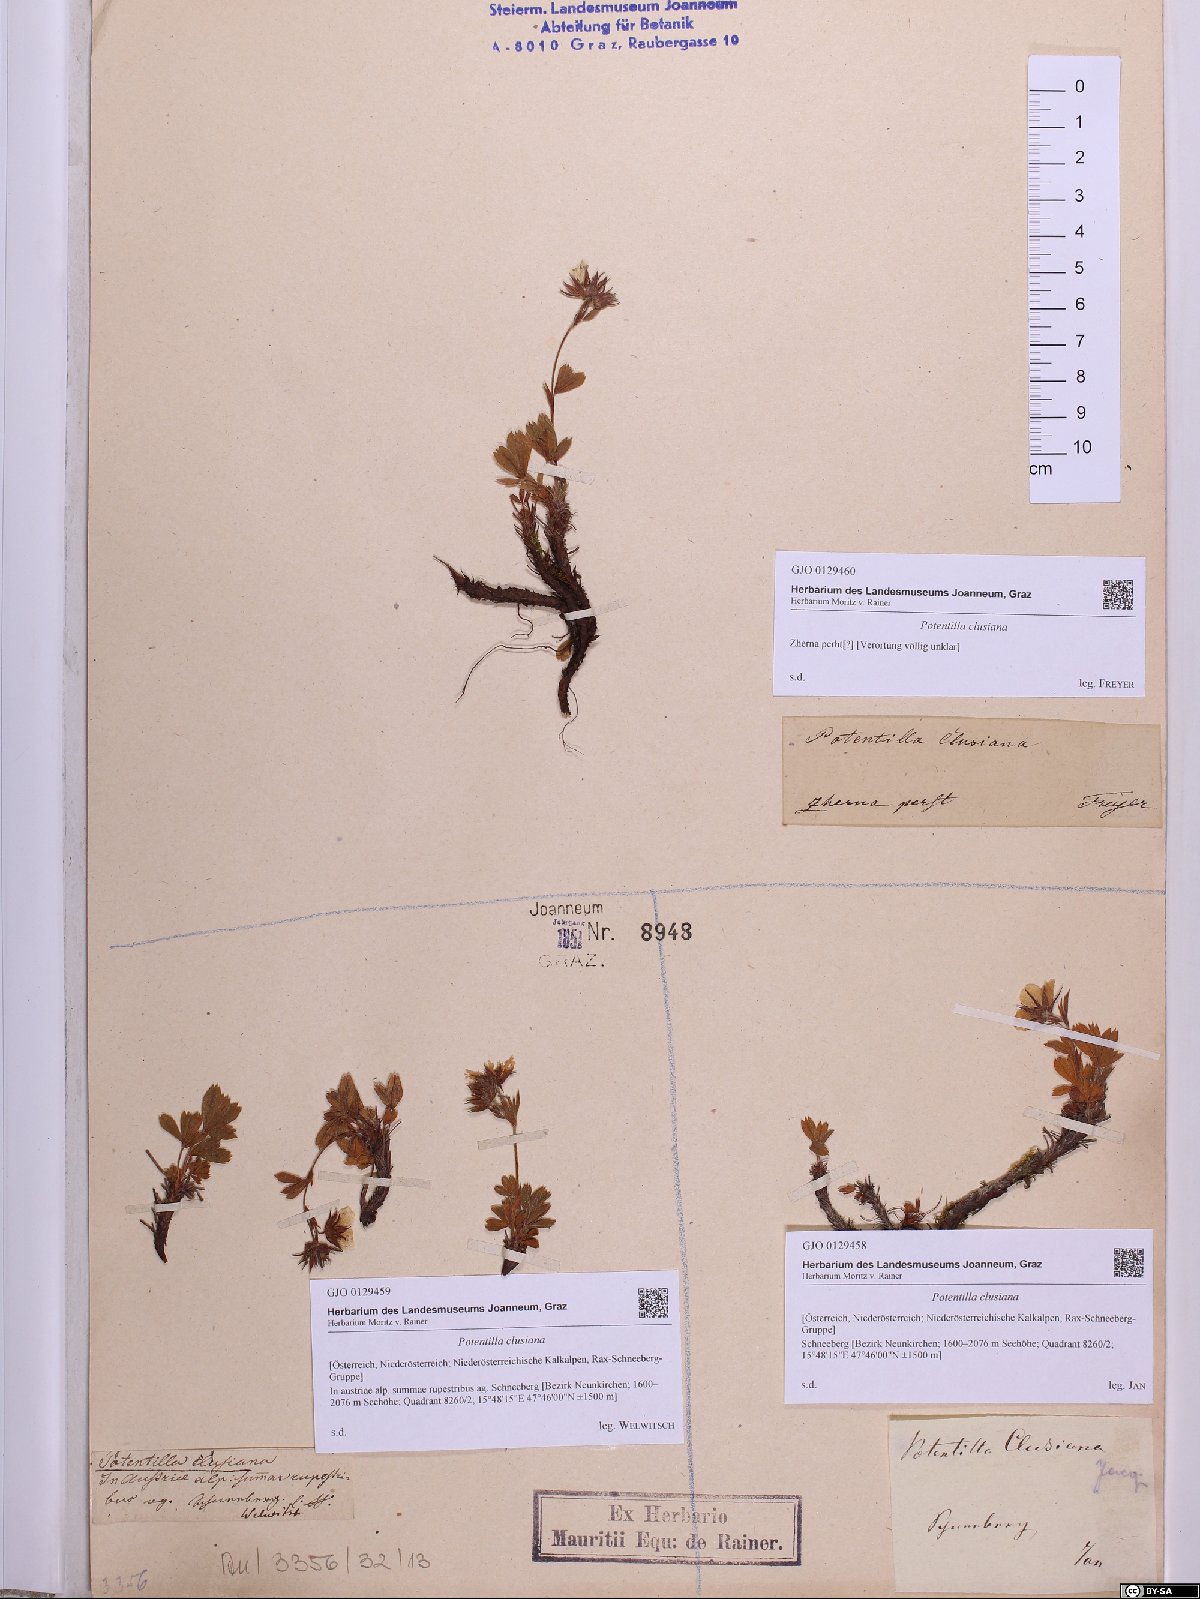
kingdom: Plantae
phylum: Tracheophyta
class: Magnoliopsida
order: Rosales
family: Rosaceae
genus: Potentilla
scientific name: Potentilla clusiana
